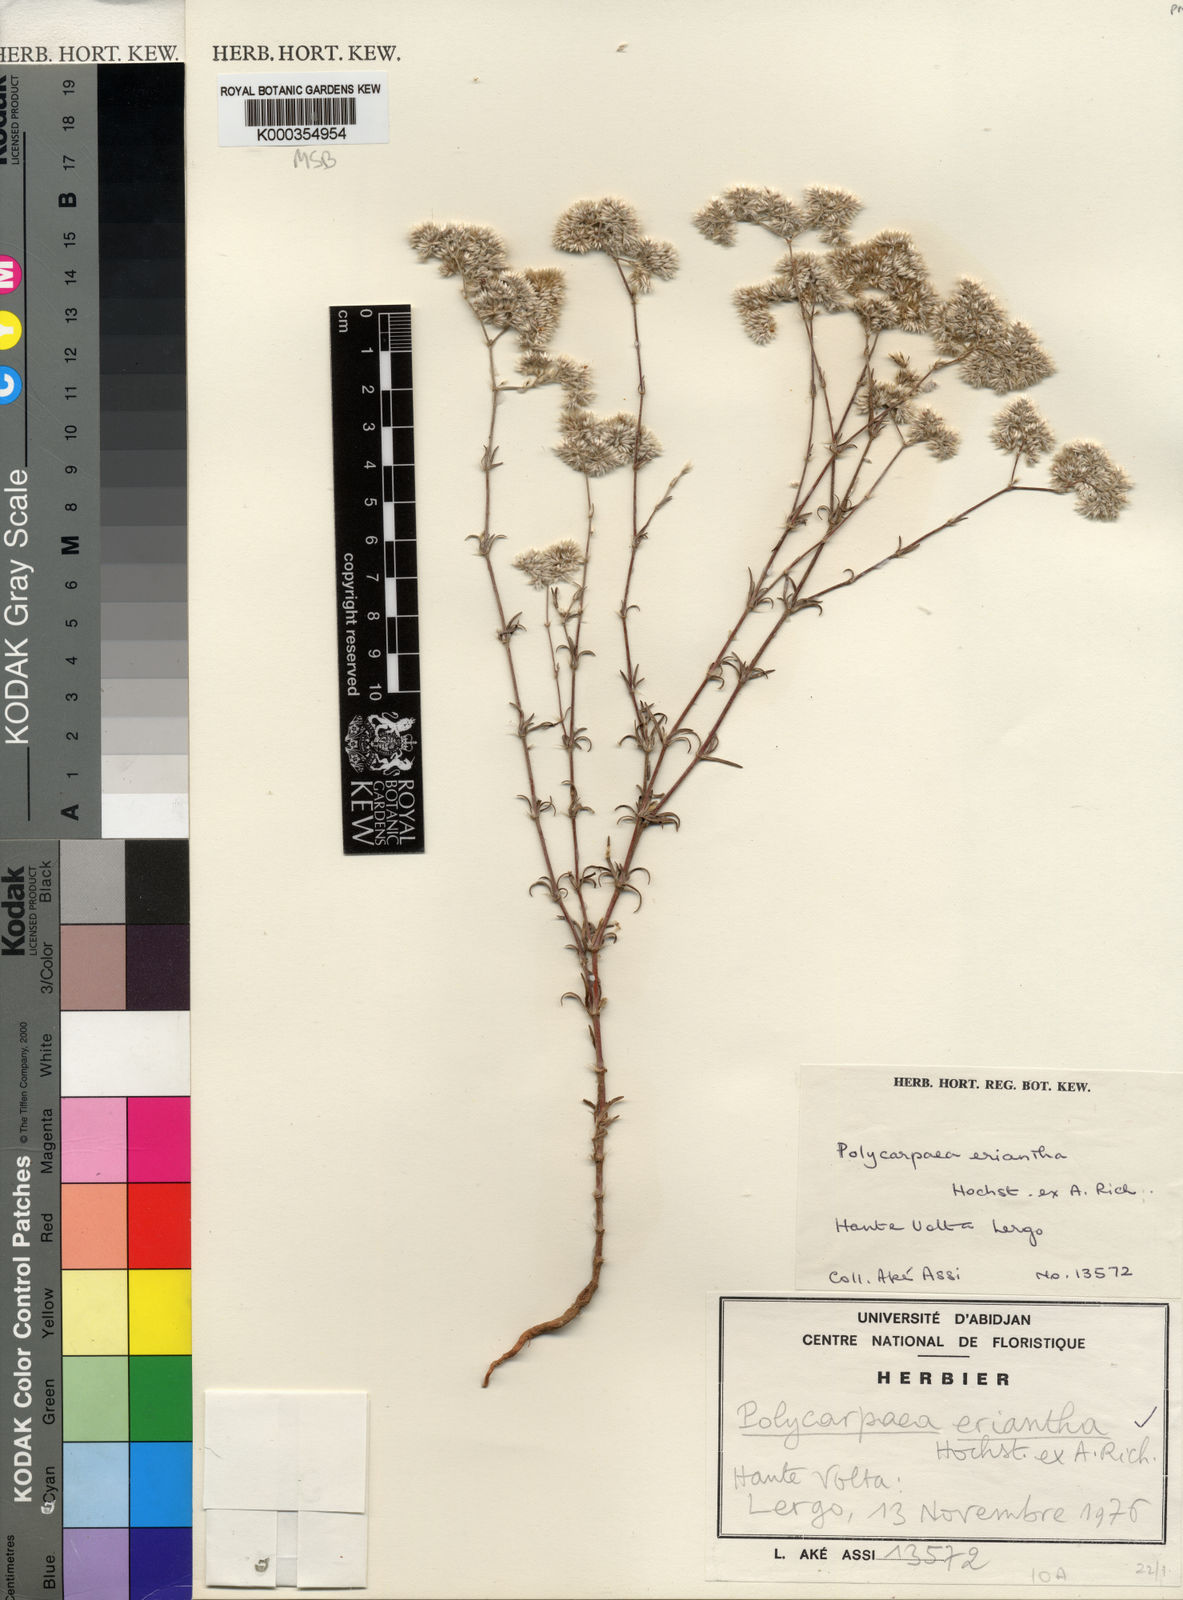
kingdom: Plantae
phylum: Tracheophyta
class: Magnoliopsida
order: Caryophyllales
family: Caryophyllaceae
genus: Polycarpaea
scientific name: Polycarpaea eriantha
